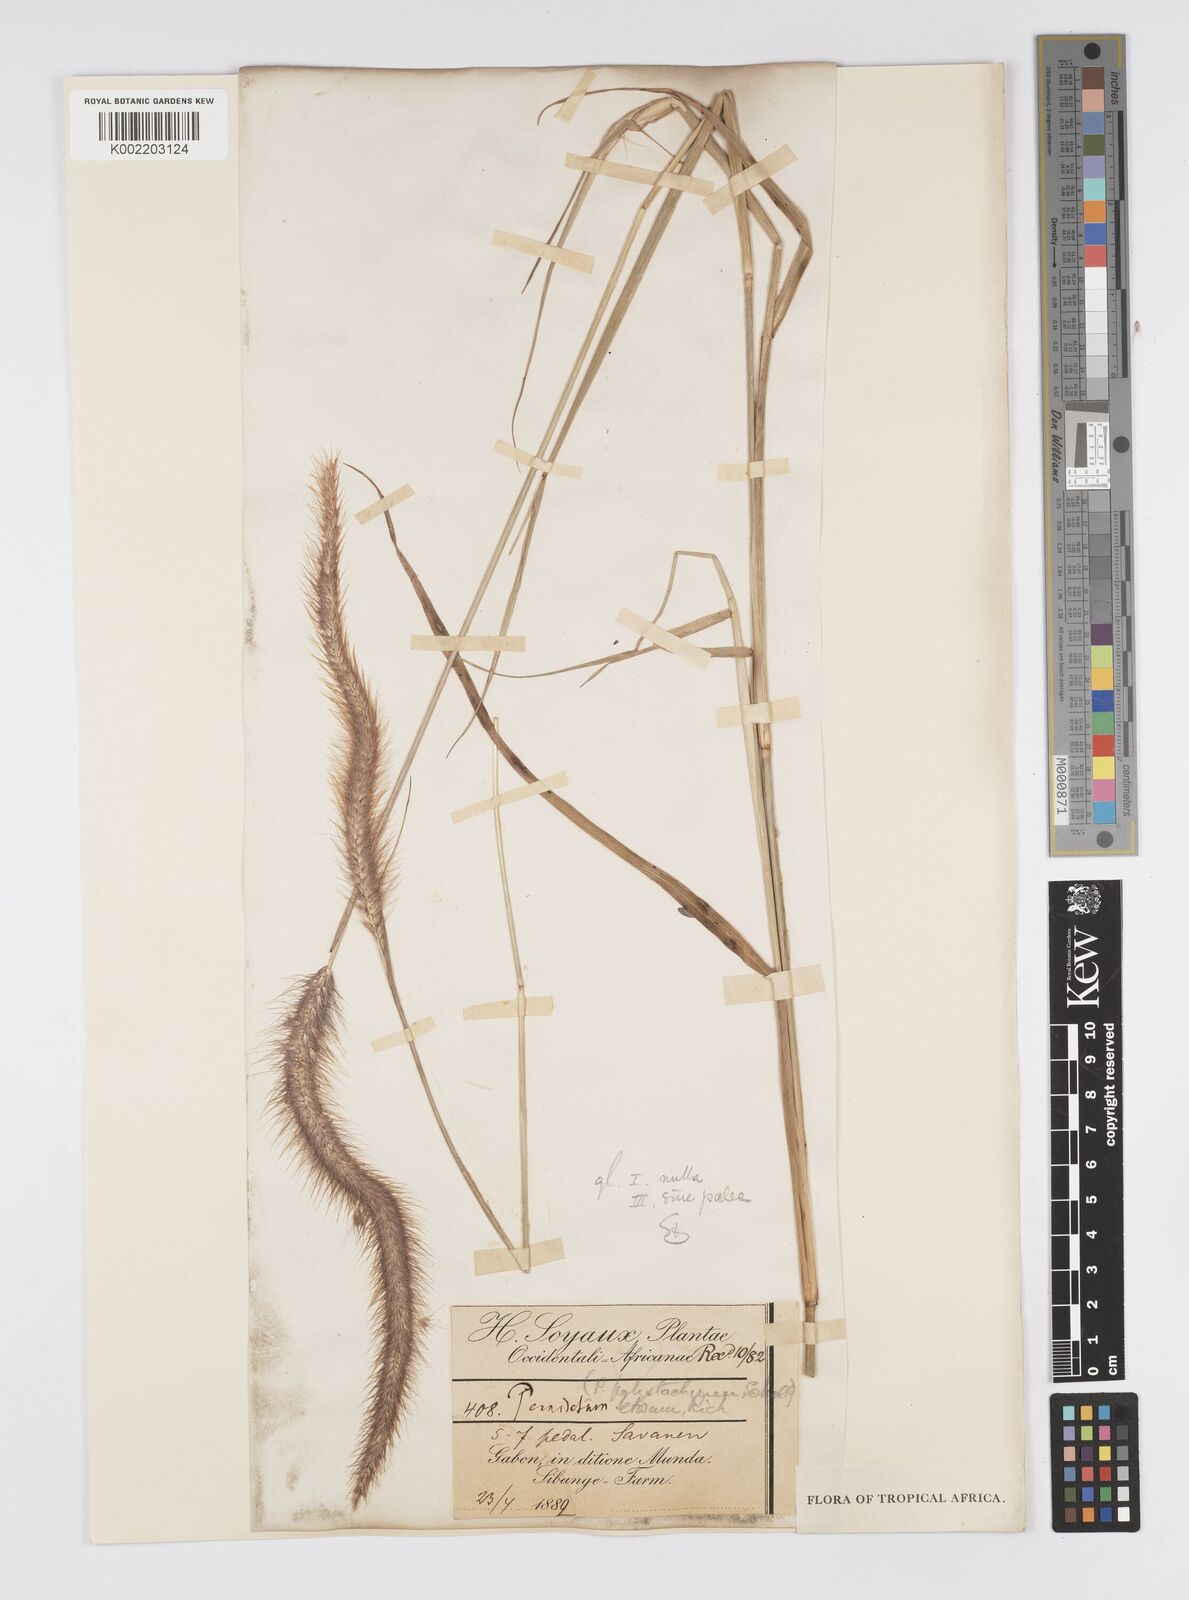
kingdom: Plantae
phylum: Tracheophyta
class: Liliopsida
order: Poales
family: Poaceae
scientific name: Poaceae
